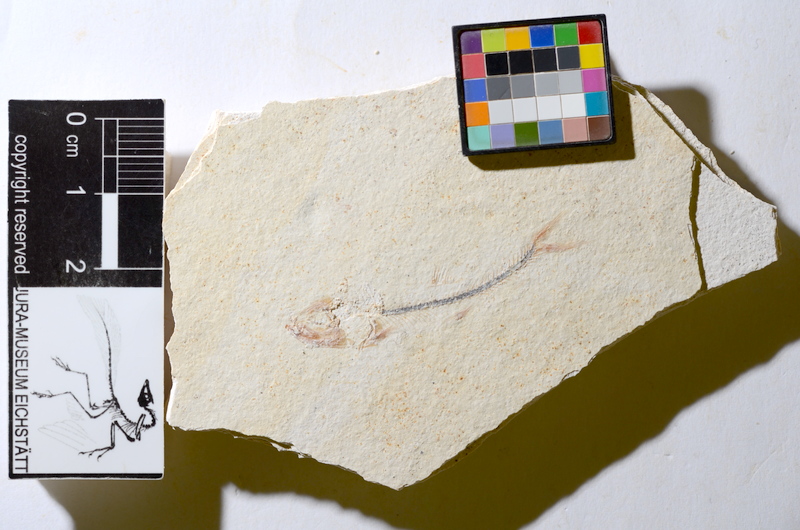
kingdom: Animalia
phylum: Chordata
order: Salmoniformes
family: Orthogonikleithridae
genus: Orthogonikleithrus
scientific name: Orthogonikleithrus hoelli
